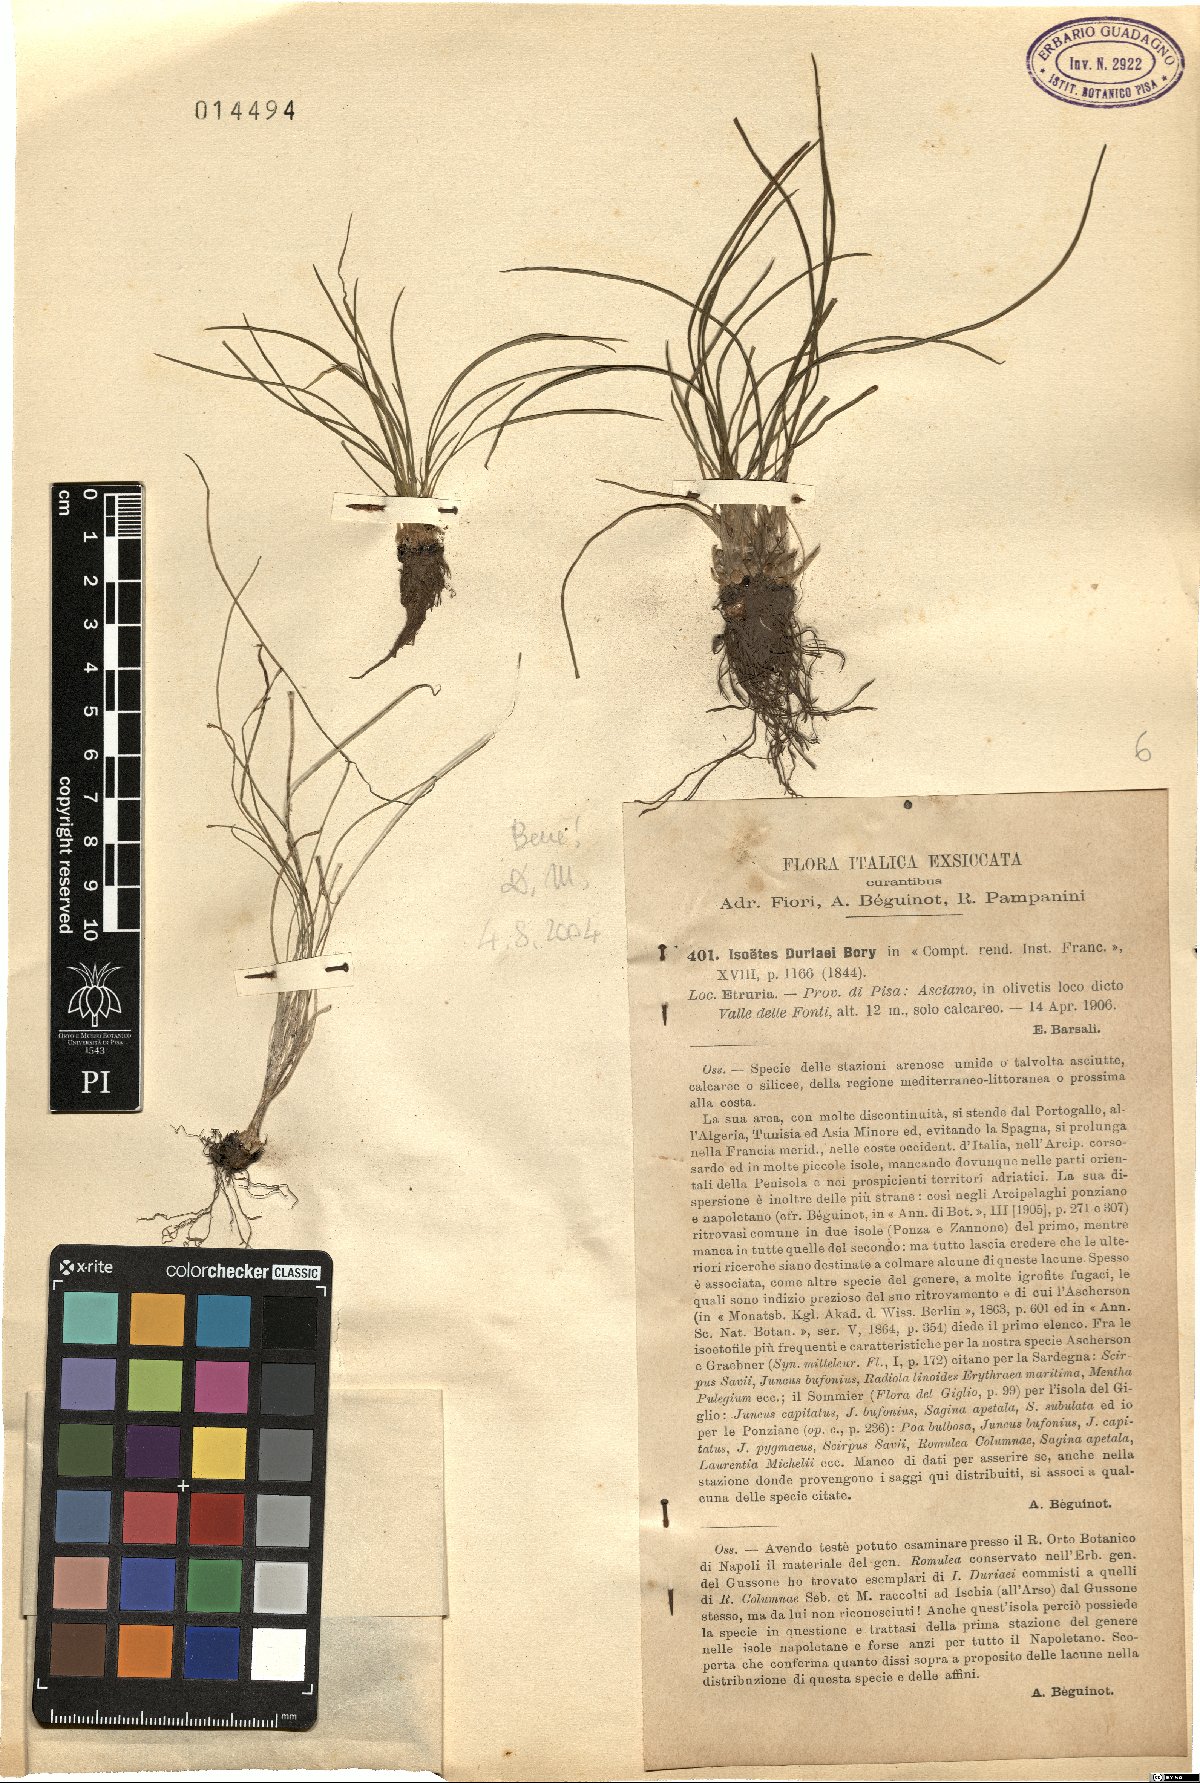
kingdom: Plantae
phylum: Tracheophyta
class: Lycopodiopsida
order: Isoetales
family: Isoetaceae
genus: Isoetes
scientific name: Isoetes duriei
